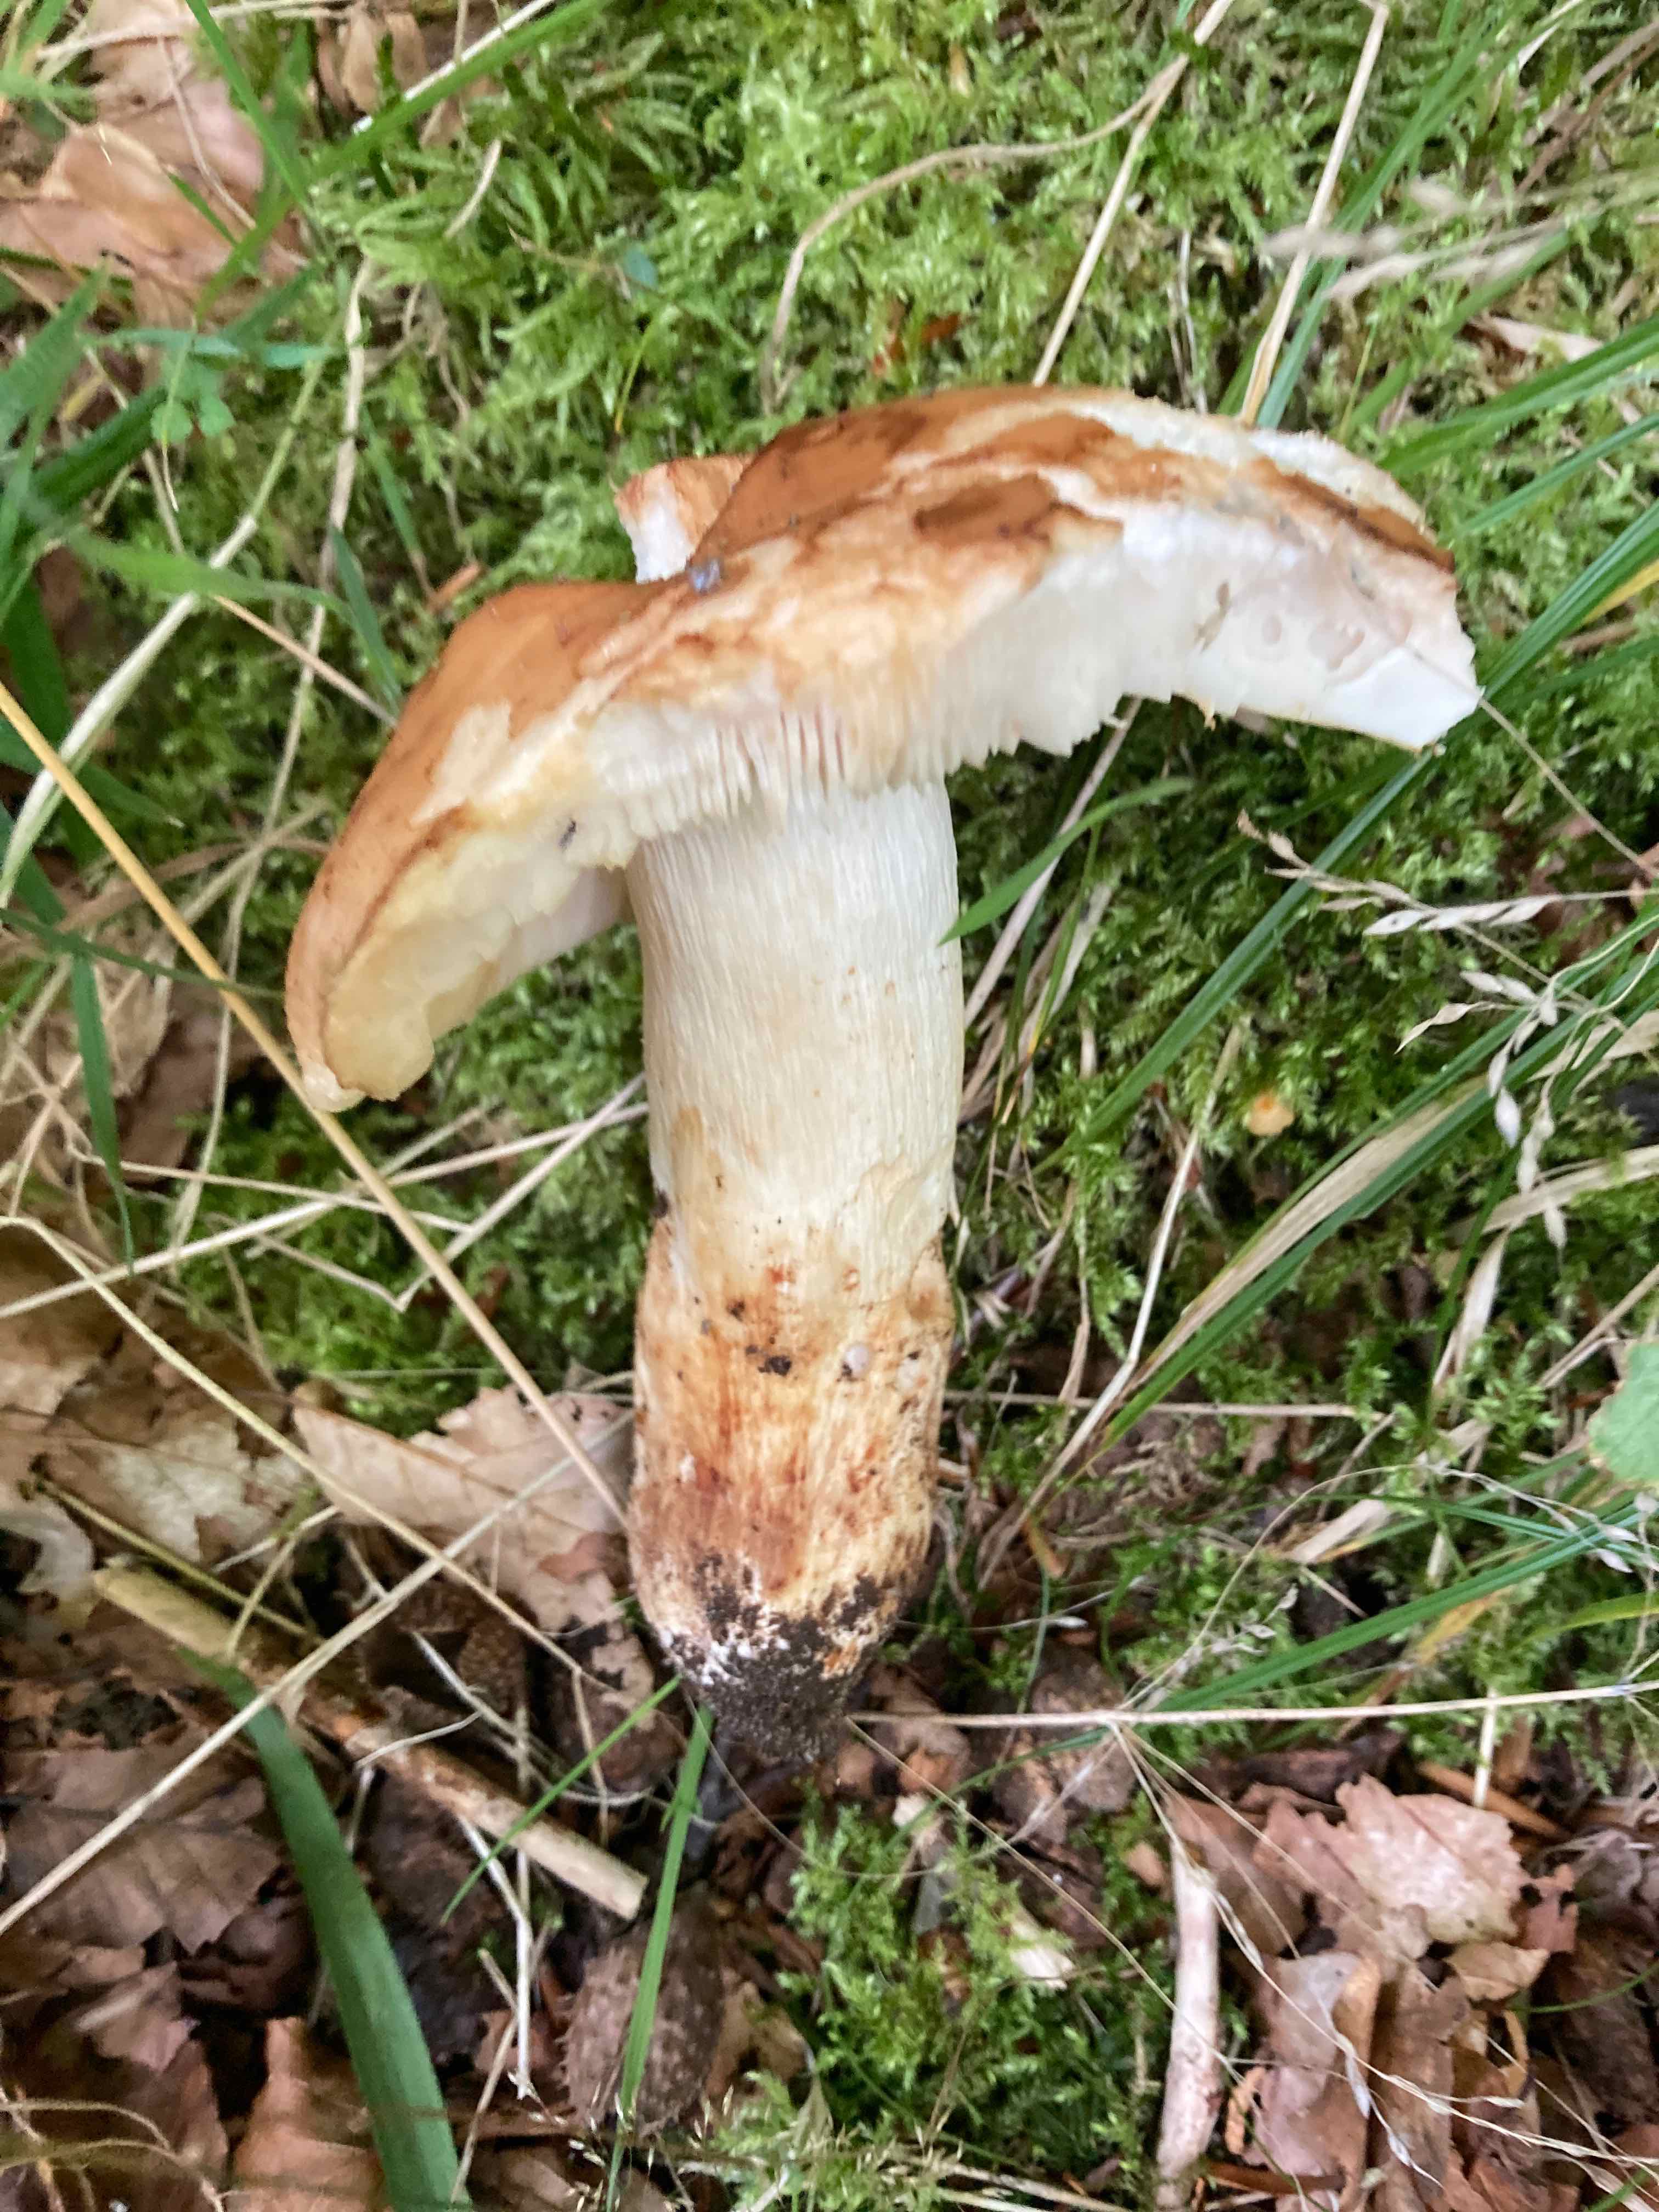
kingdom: Fungi
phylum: Basidiomycota
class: Agaricomycetes
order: Russulales
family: Russulaceae
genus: Russula
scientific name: Russula grata
